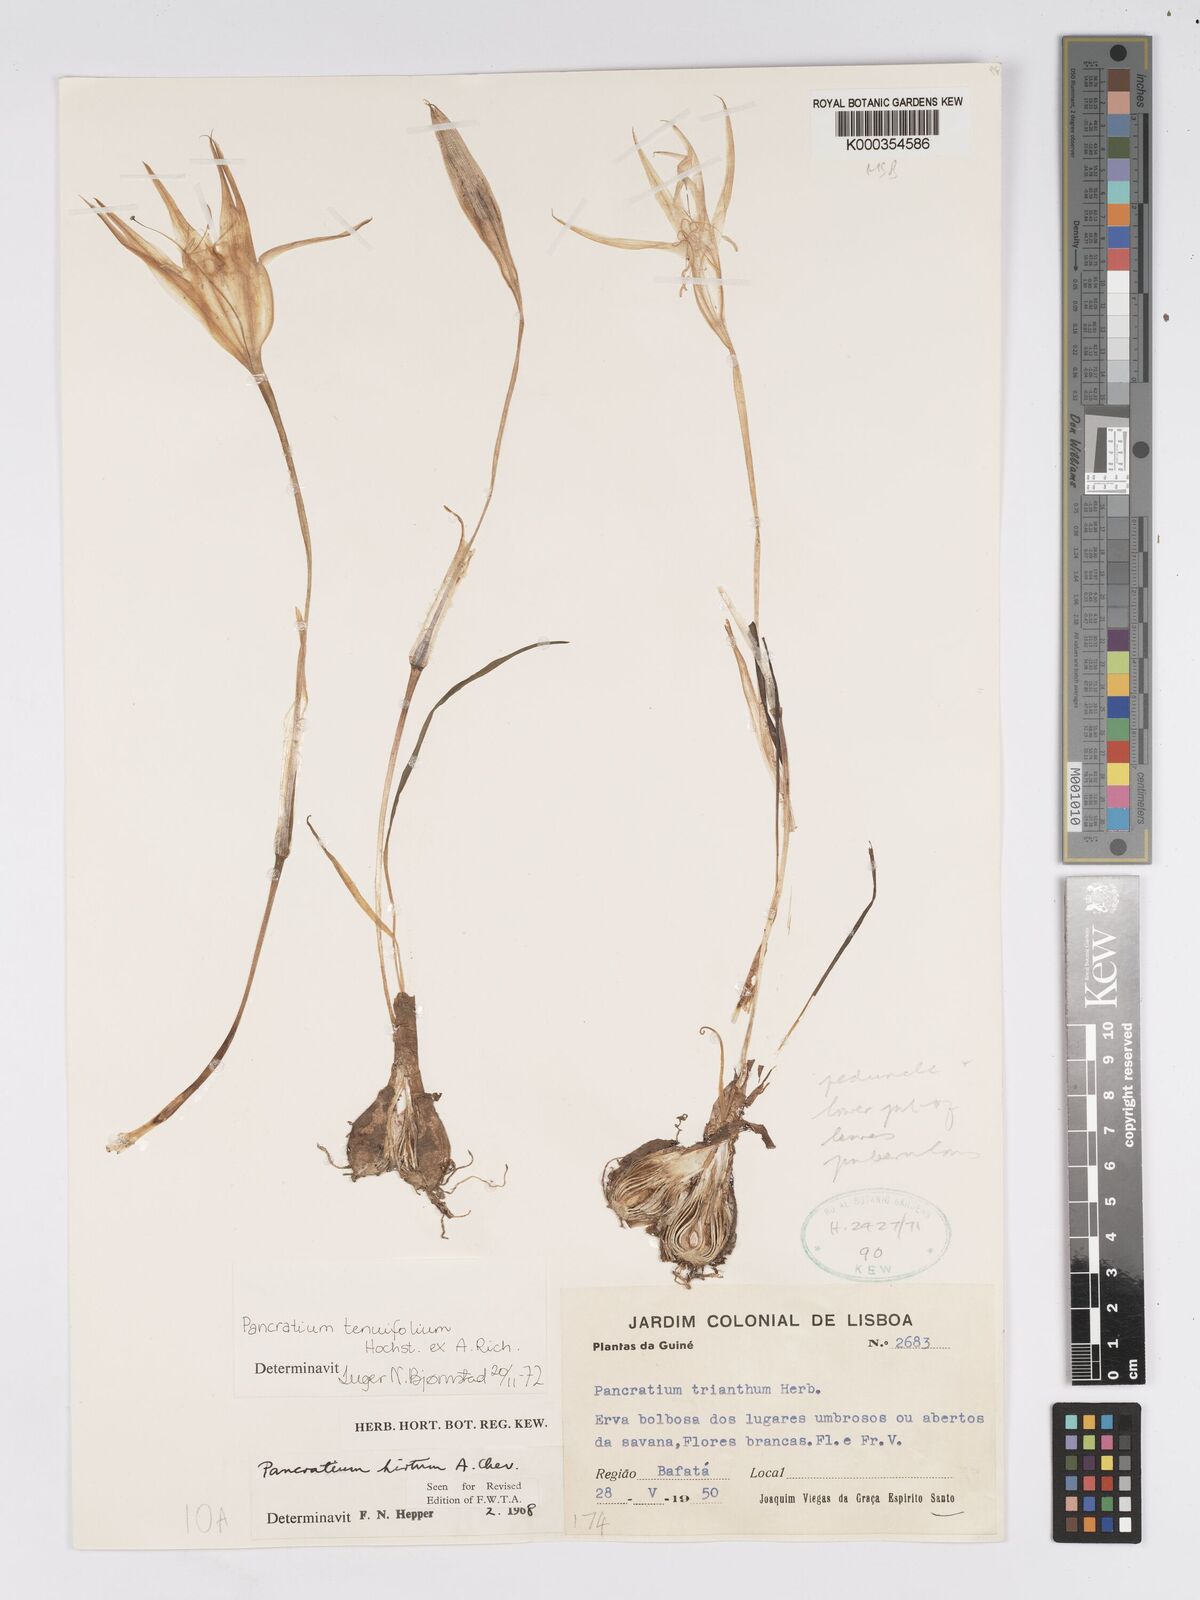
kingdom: Plantae
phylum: Tracheophyta
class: Liliopsida
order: Asparagales
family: Amaryllidaceae
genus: Pancratium
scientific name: Pancratium tenuifolium
